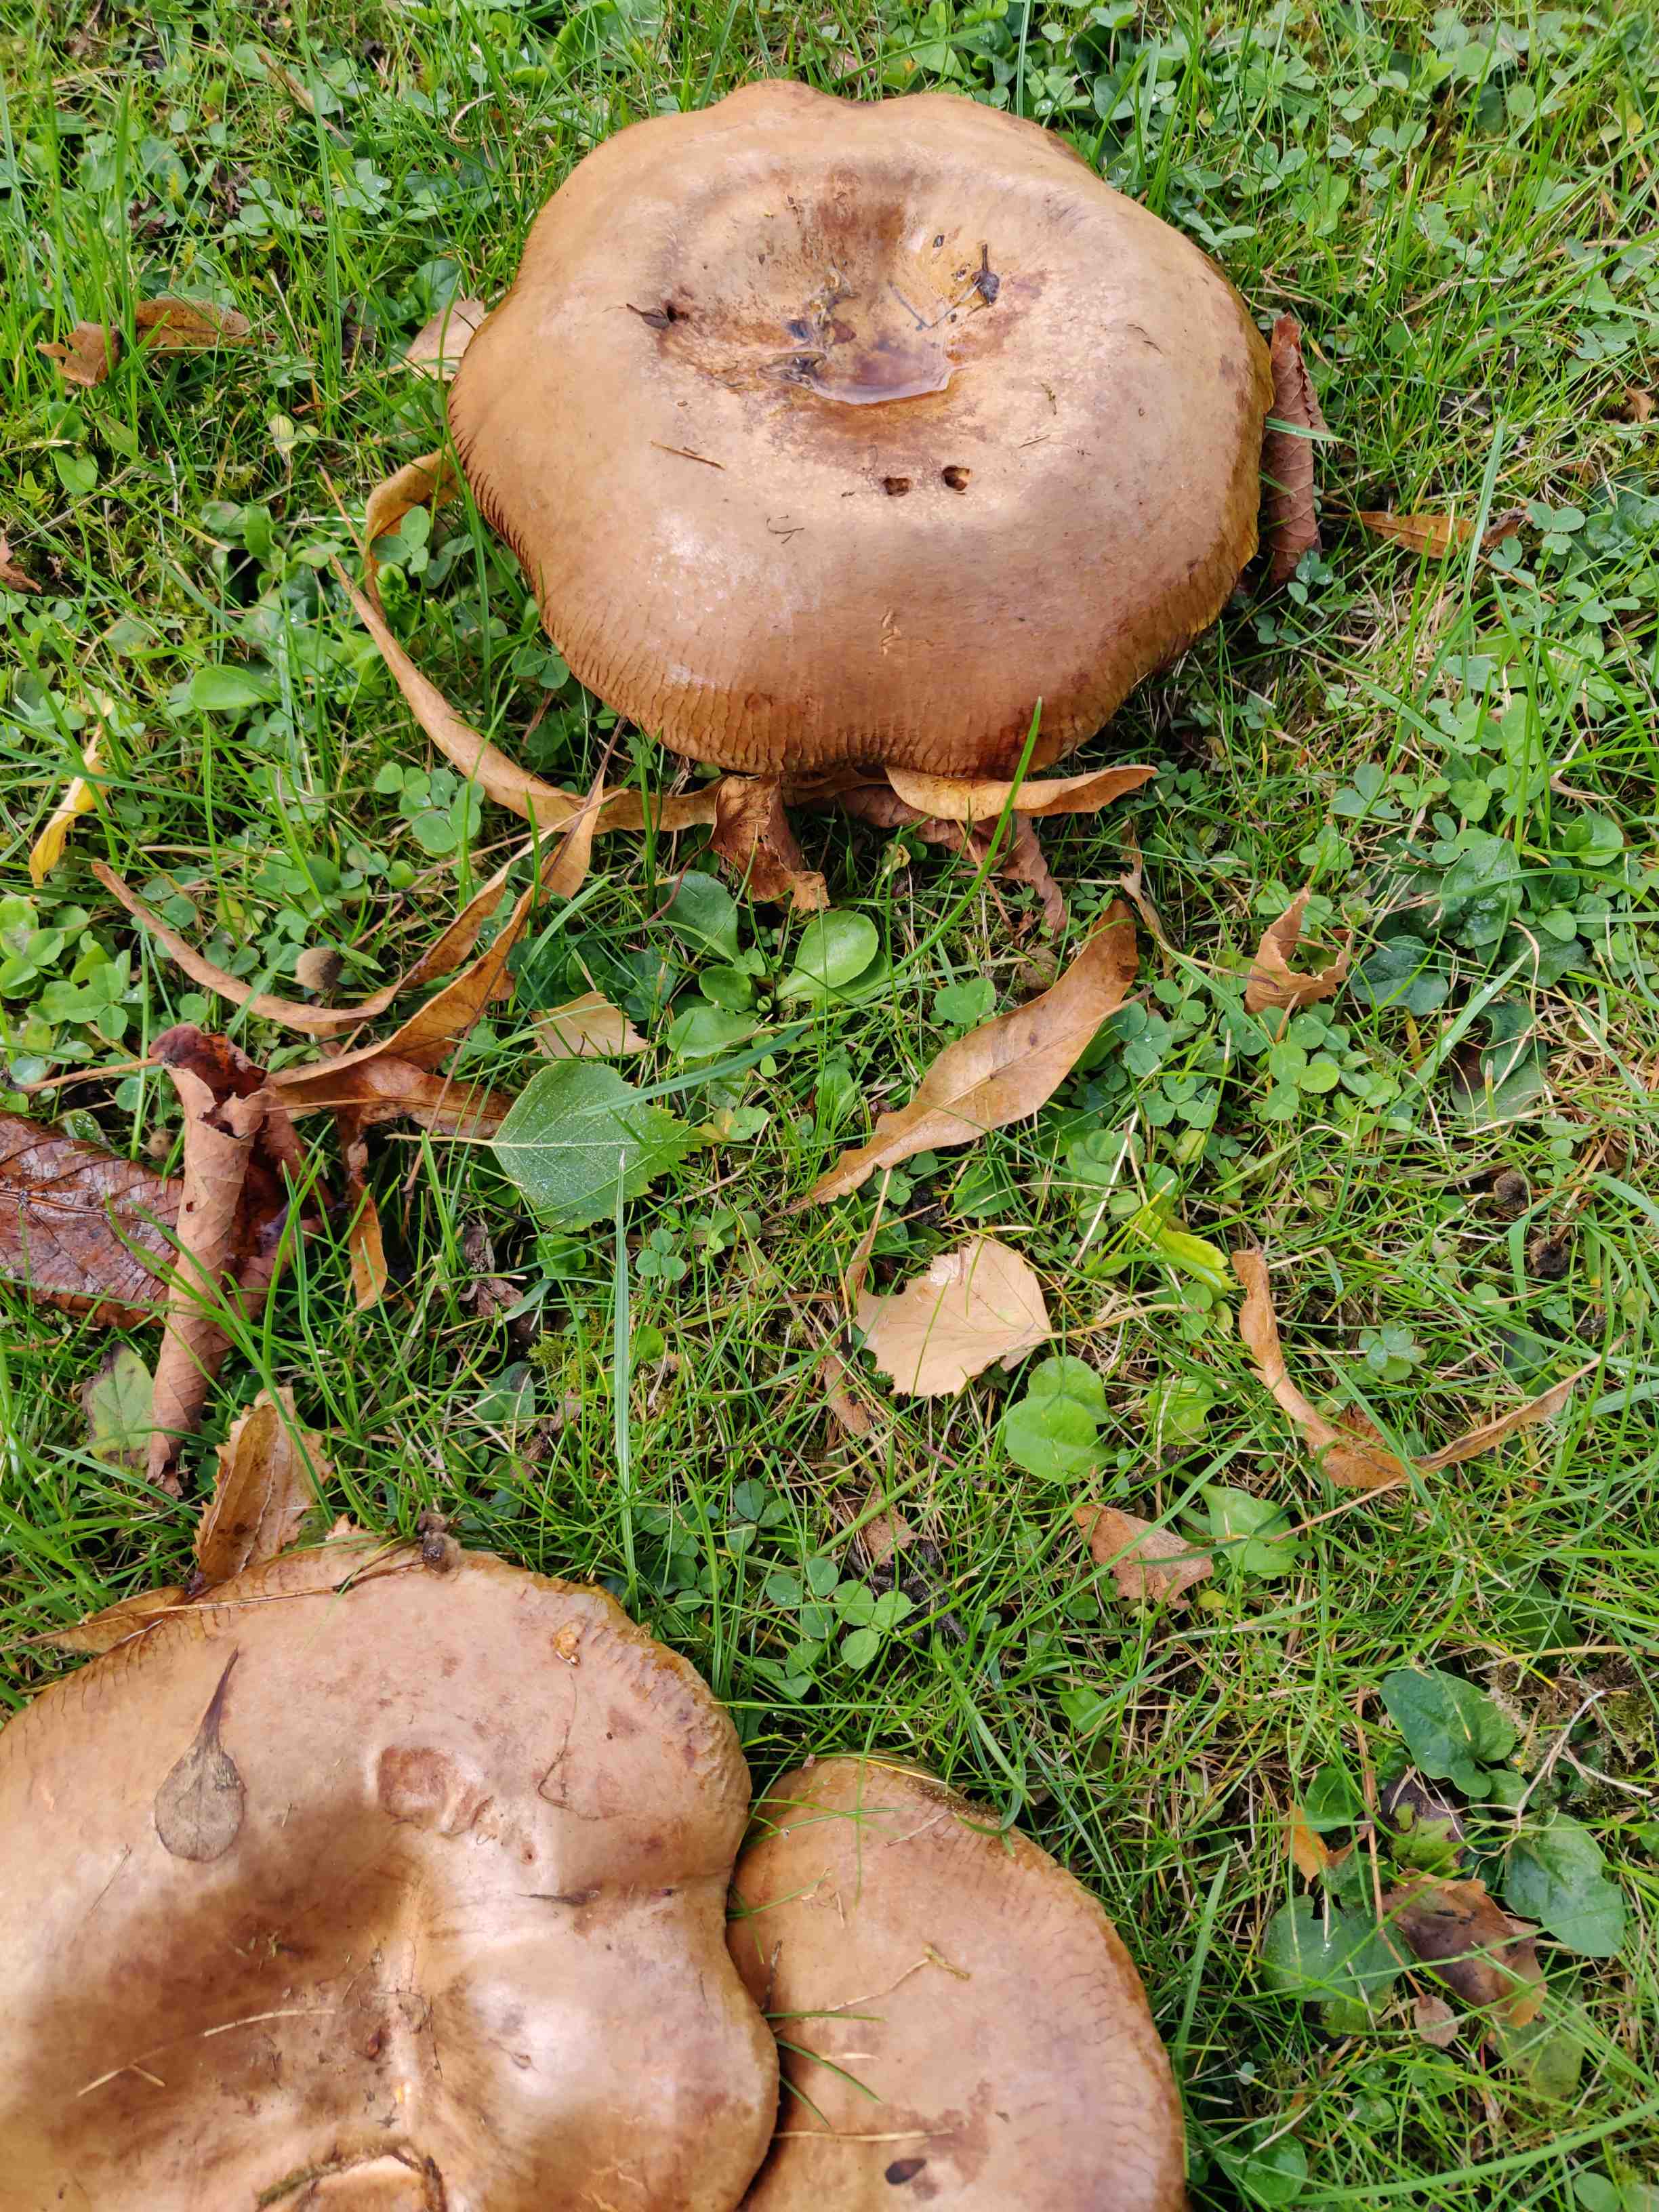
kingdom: Fungi
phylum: Basidiomycota
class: Agaricomycetes
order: Boletales
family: Paxillaceae
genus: Paxillus
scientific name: Paxillus
